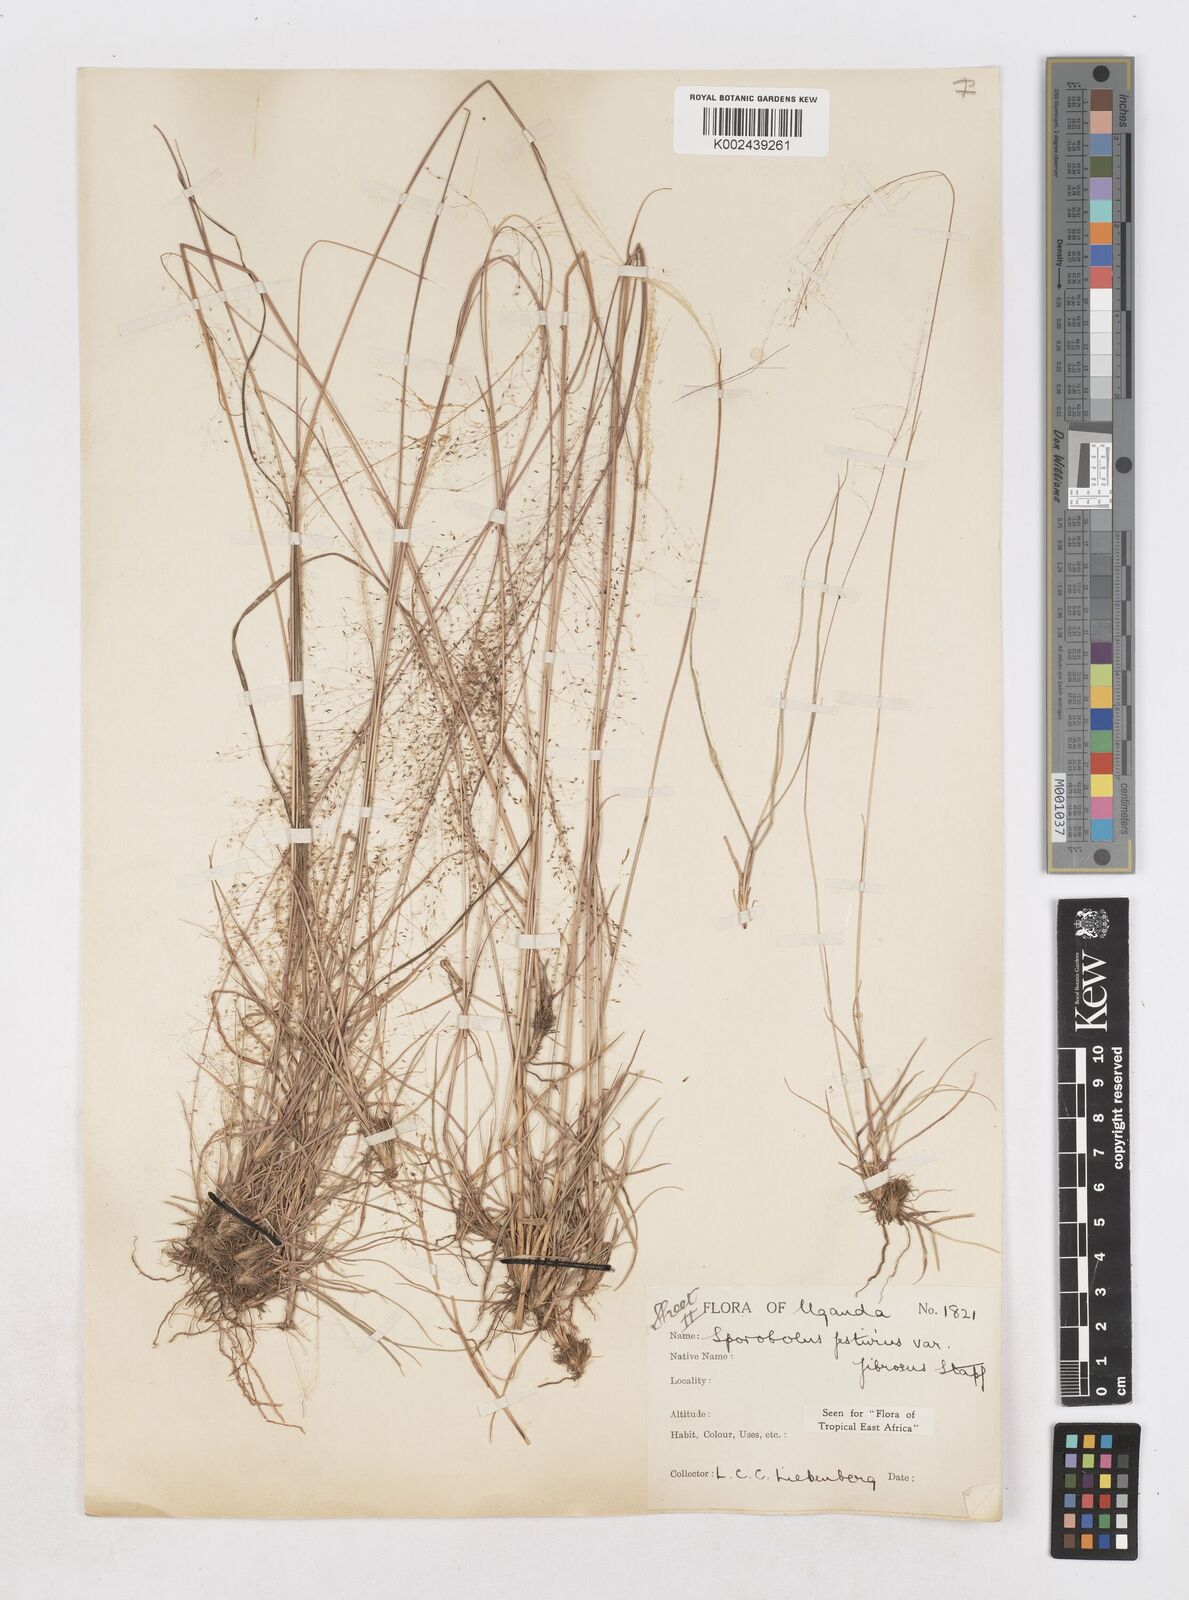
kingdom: Plantae
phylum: Tracheophyta
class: Liliopsida
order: Poales
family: Poaceae
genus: Sporobolus
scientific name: Sporobolus festivus
